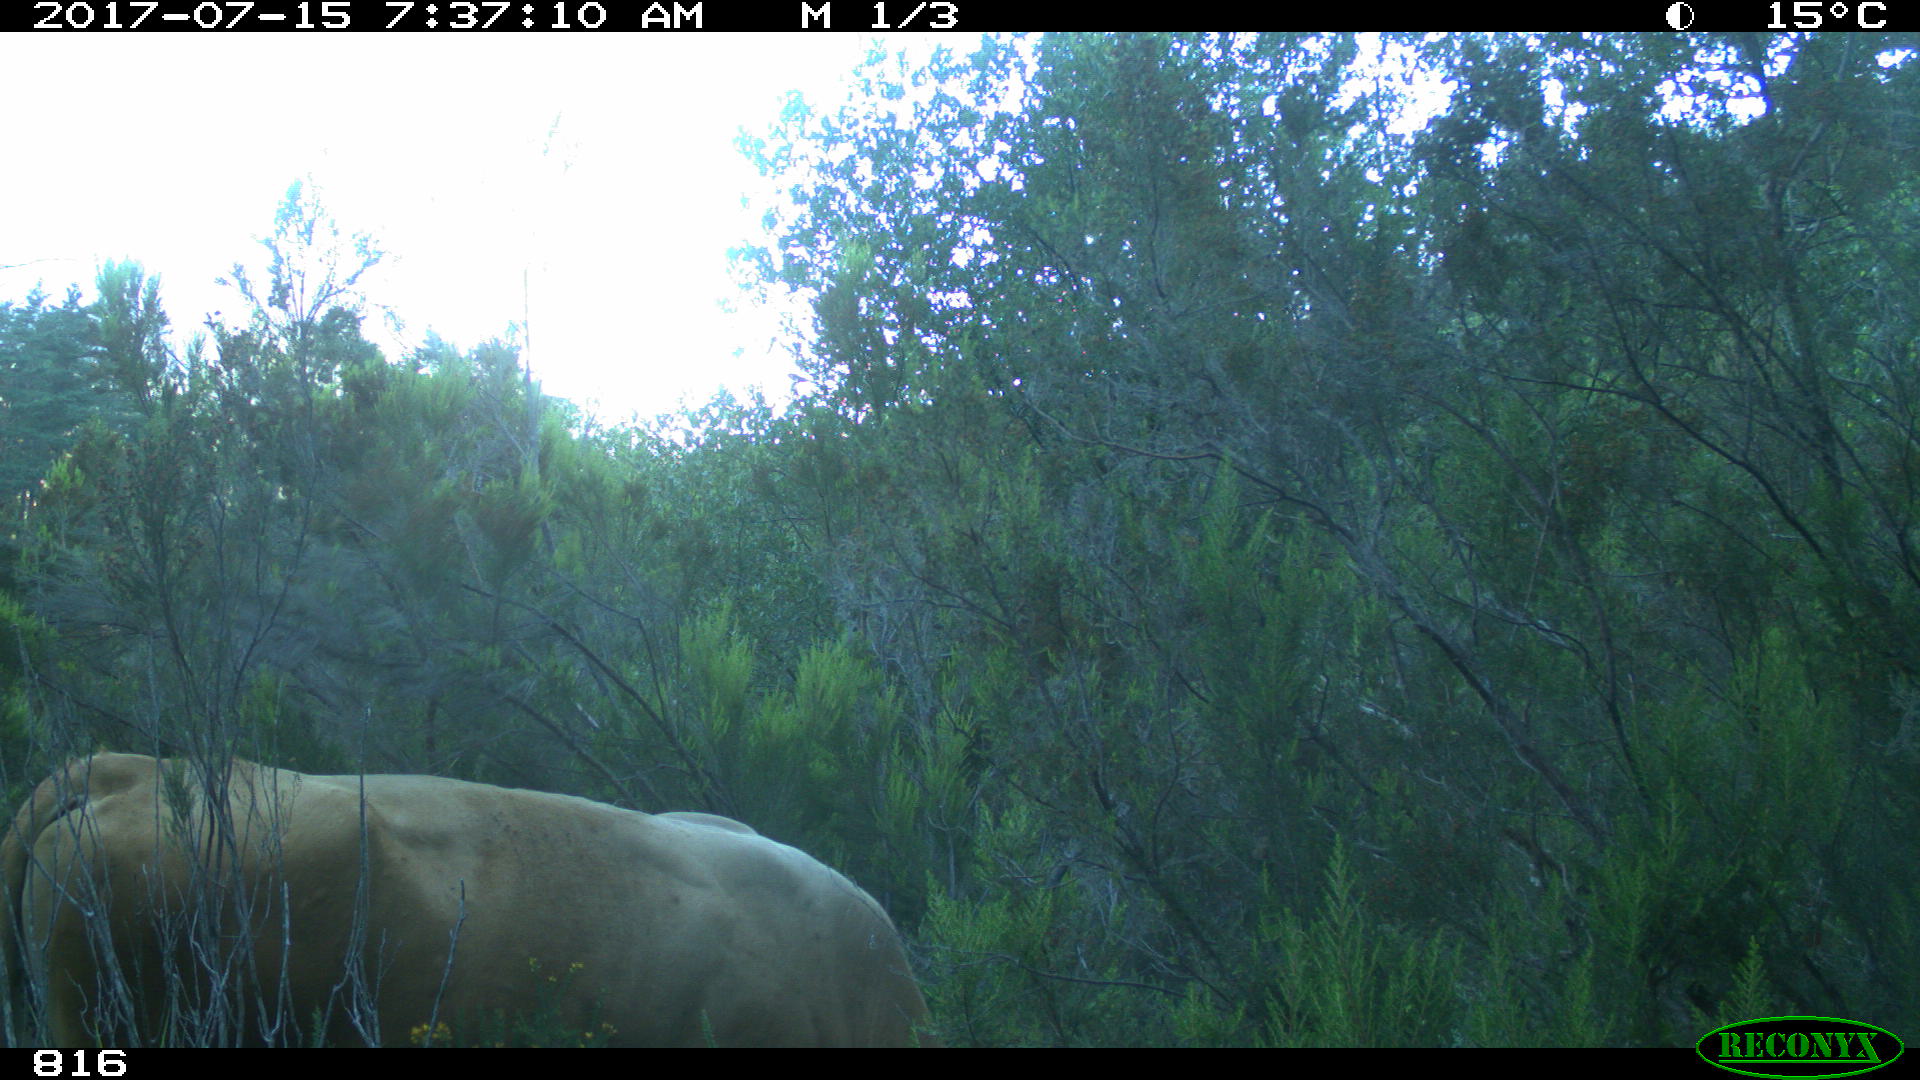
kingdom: Animalia
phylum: Chordata
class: Mammalia
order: Artiodactyla
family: Bovidae
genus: Bos
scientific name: Bos taurus
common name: Domesticated cattle
